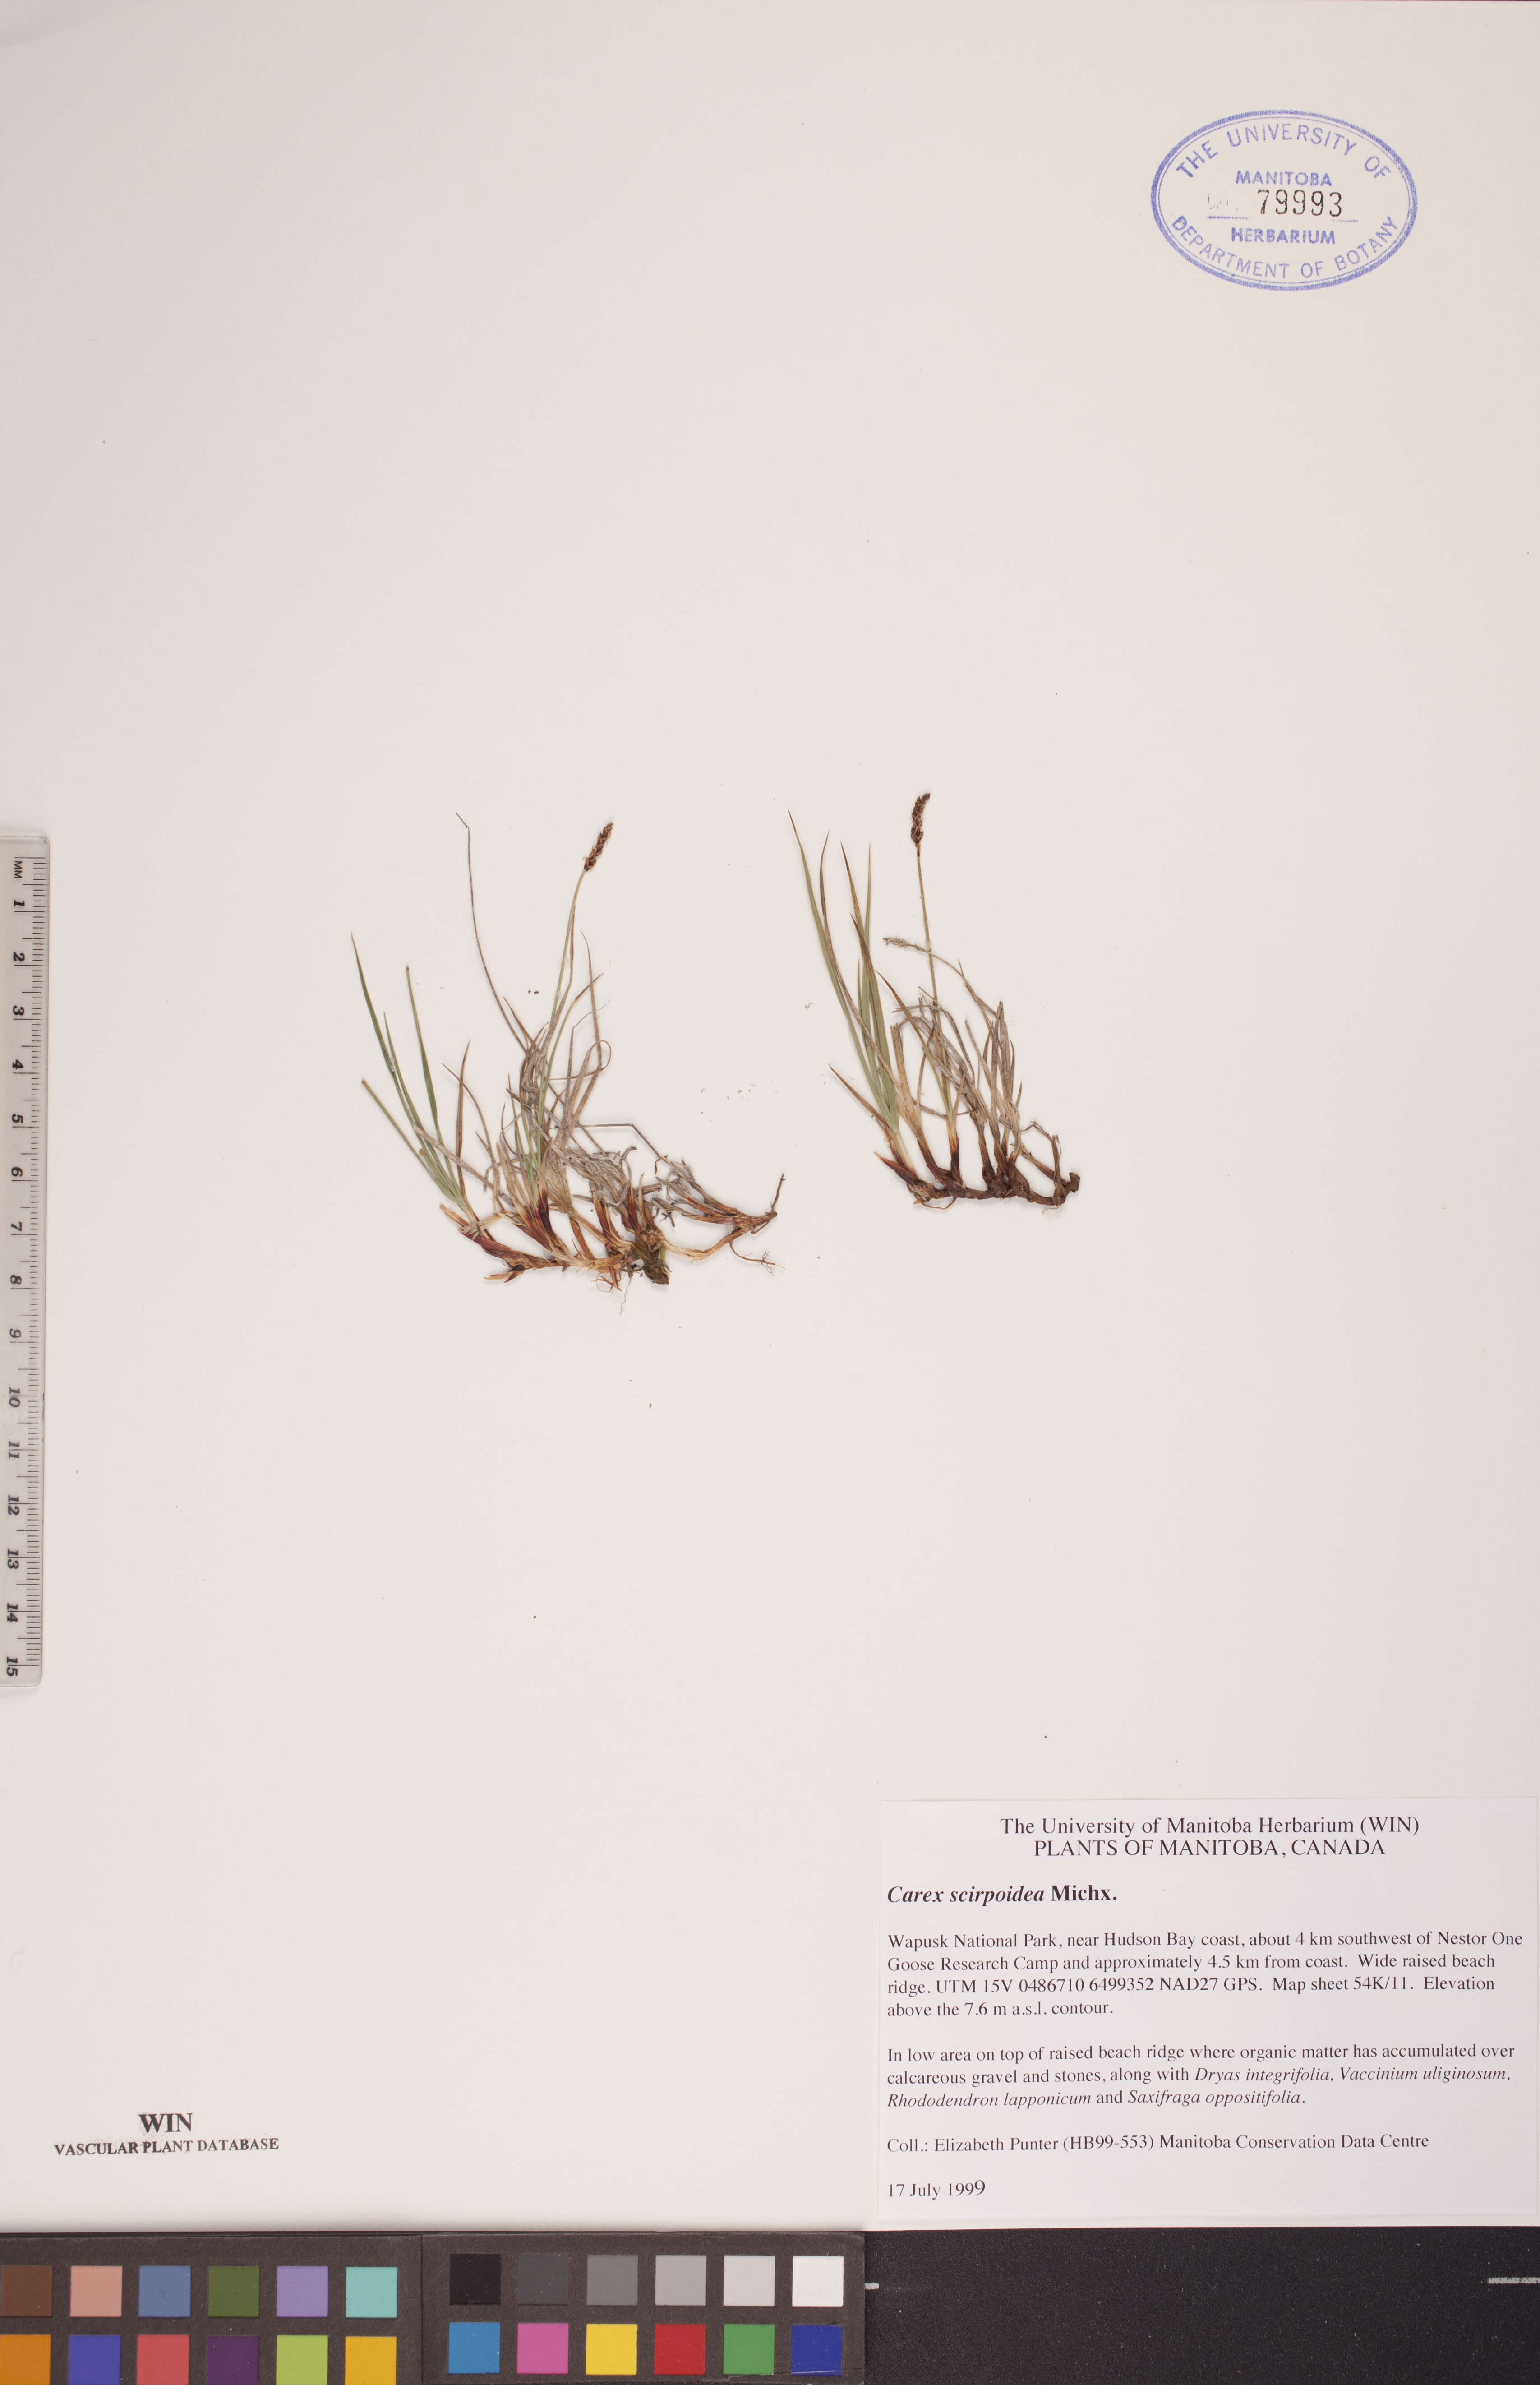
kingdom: Plantae
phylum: Tracheophyta
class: Liliopsida
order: Poales
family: Cyperaceae
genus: Carex
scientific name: Carex scirpoidea
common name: Canada single-spike sedge
